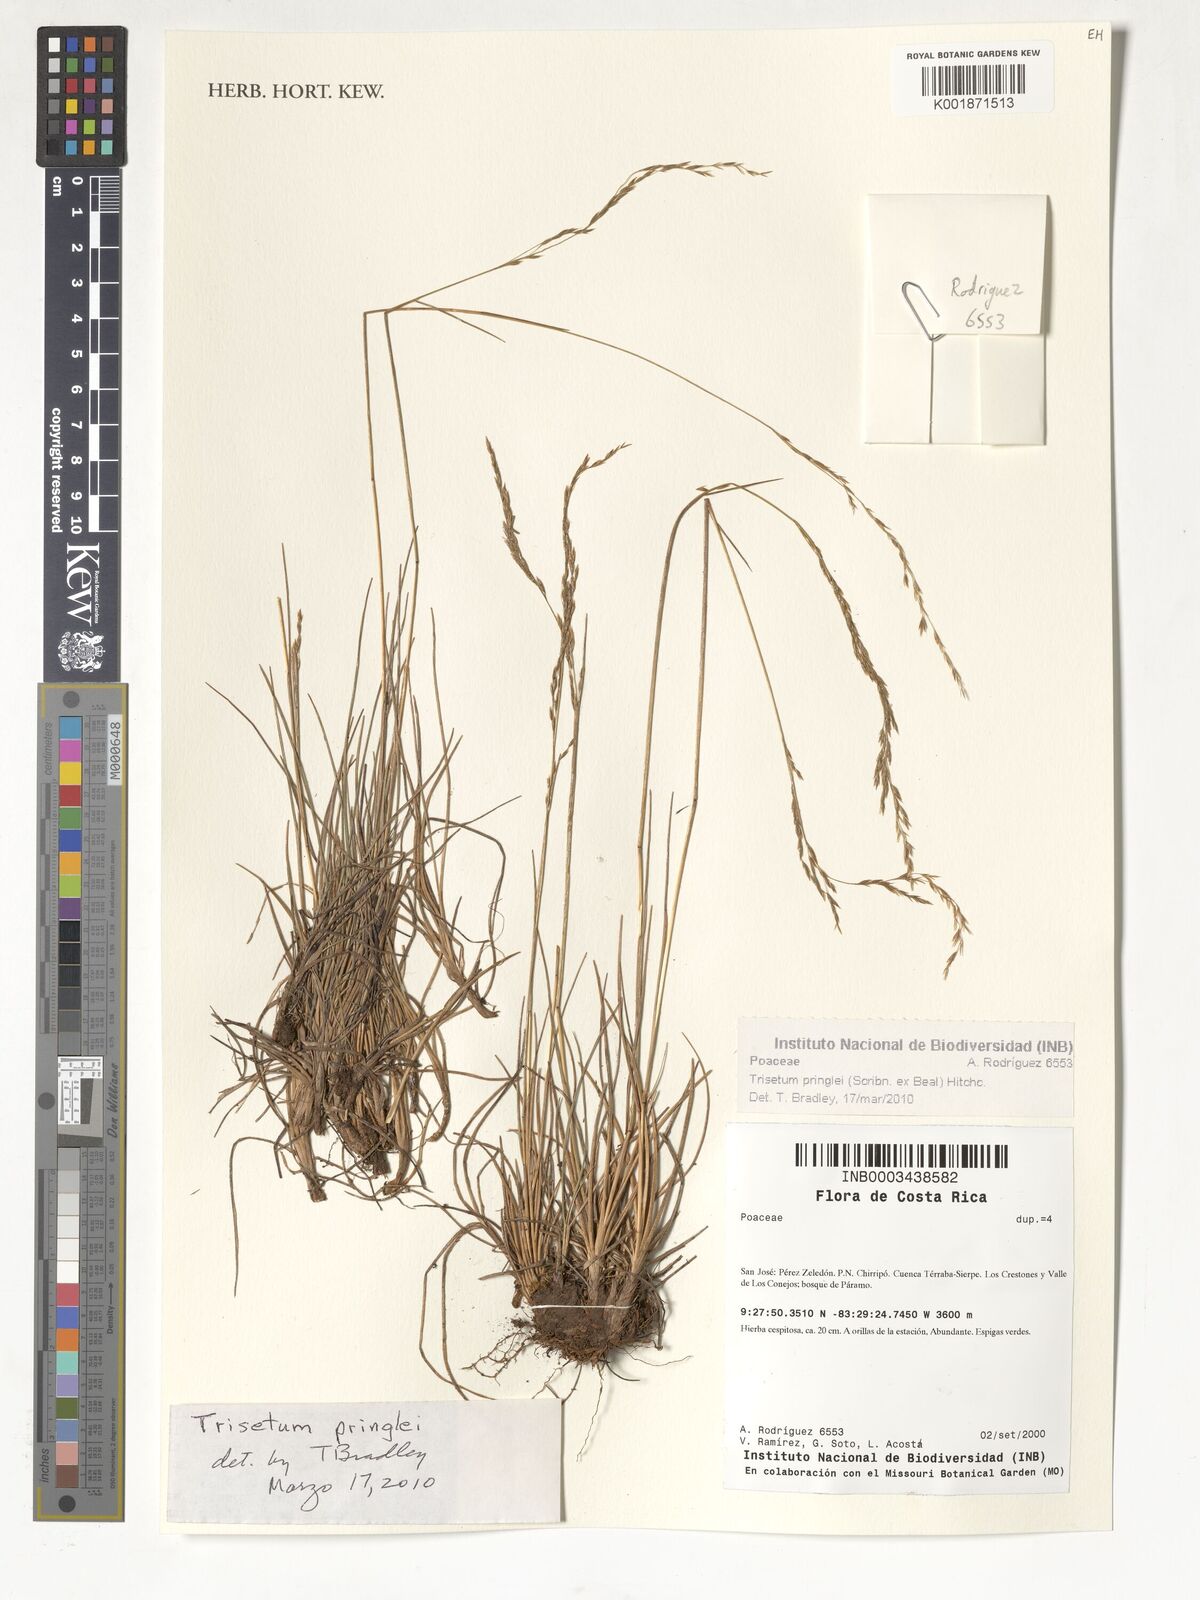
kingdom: Plantae
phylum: Tracheophyta
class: Liliopsida
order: Poales
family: Poaceae
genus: Peyritschia
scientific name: Peyritschia graphephoroides
